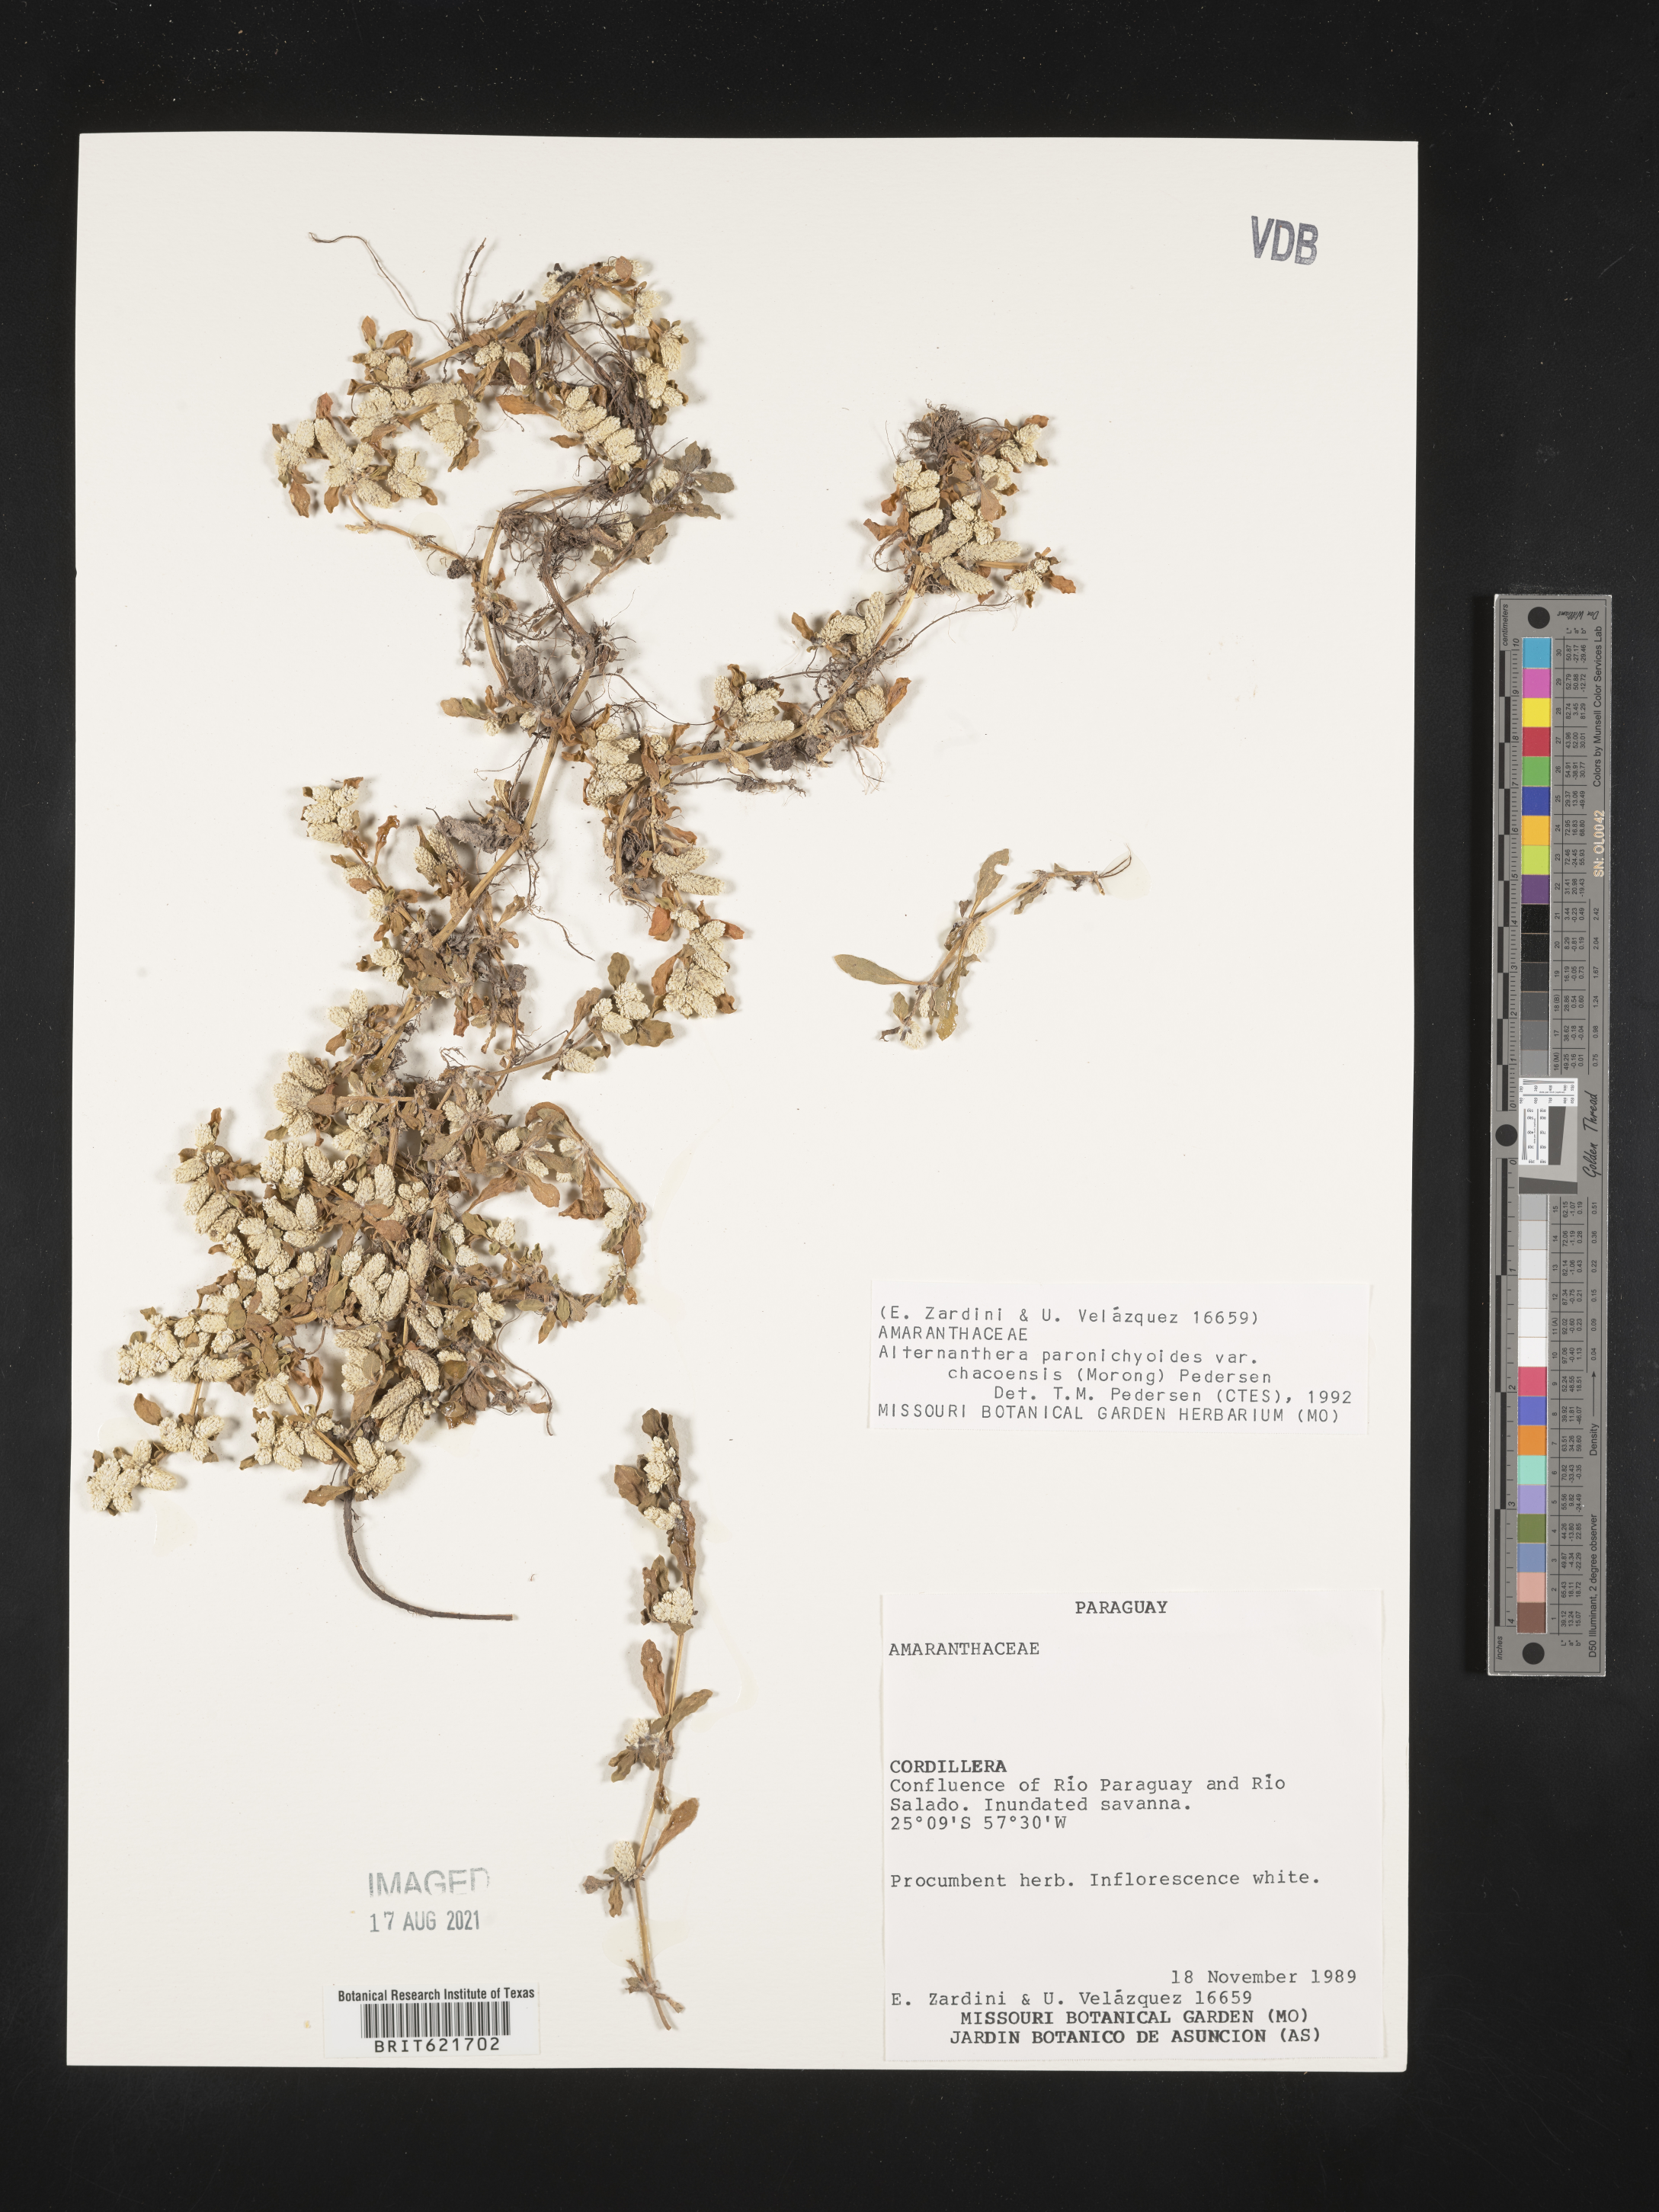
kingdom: Plantae
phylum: Tracheophyta
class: Magnoliopsida
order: Caryophyllales
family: Amaranthaceae
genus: Alternanthera
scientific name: Alternanthera paronychioides
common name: Smooth joyweed
